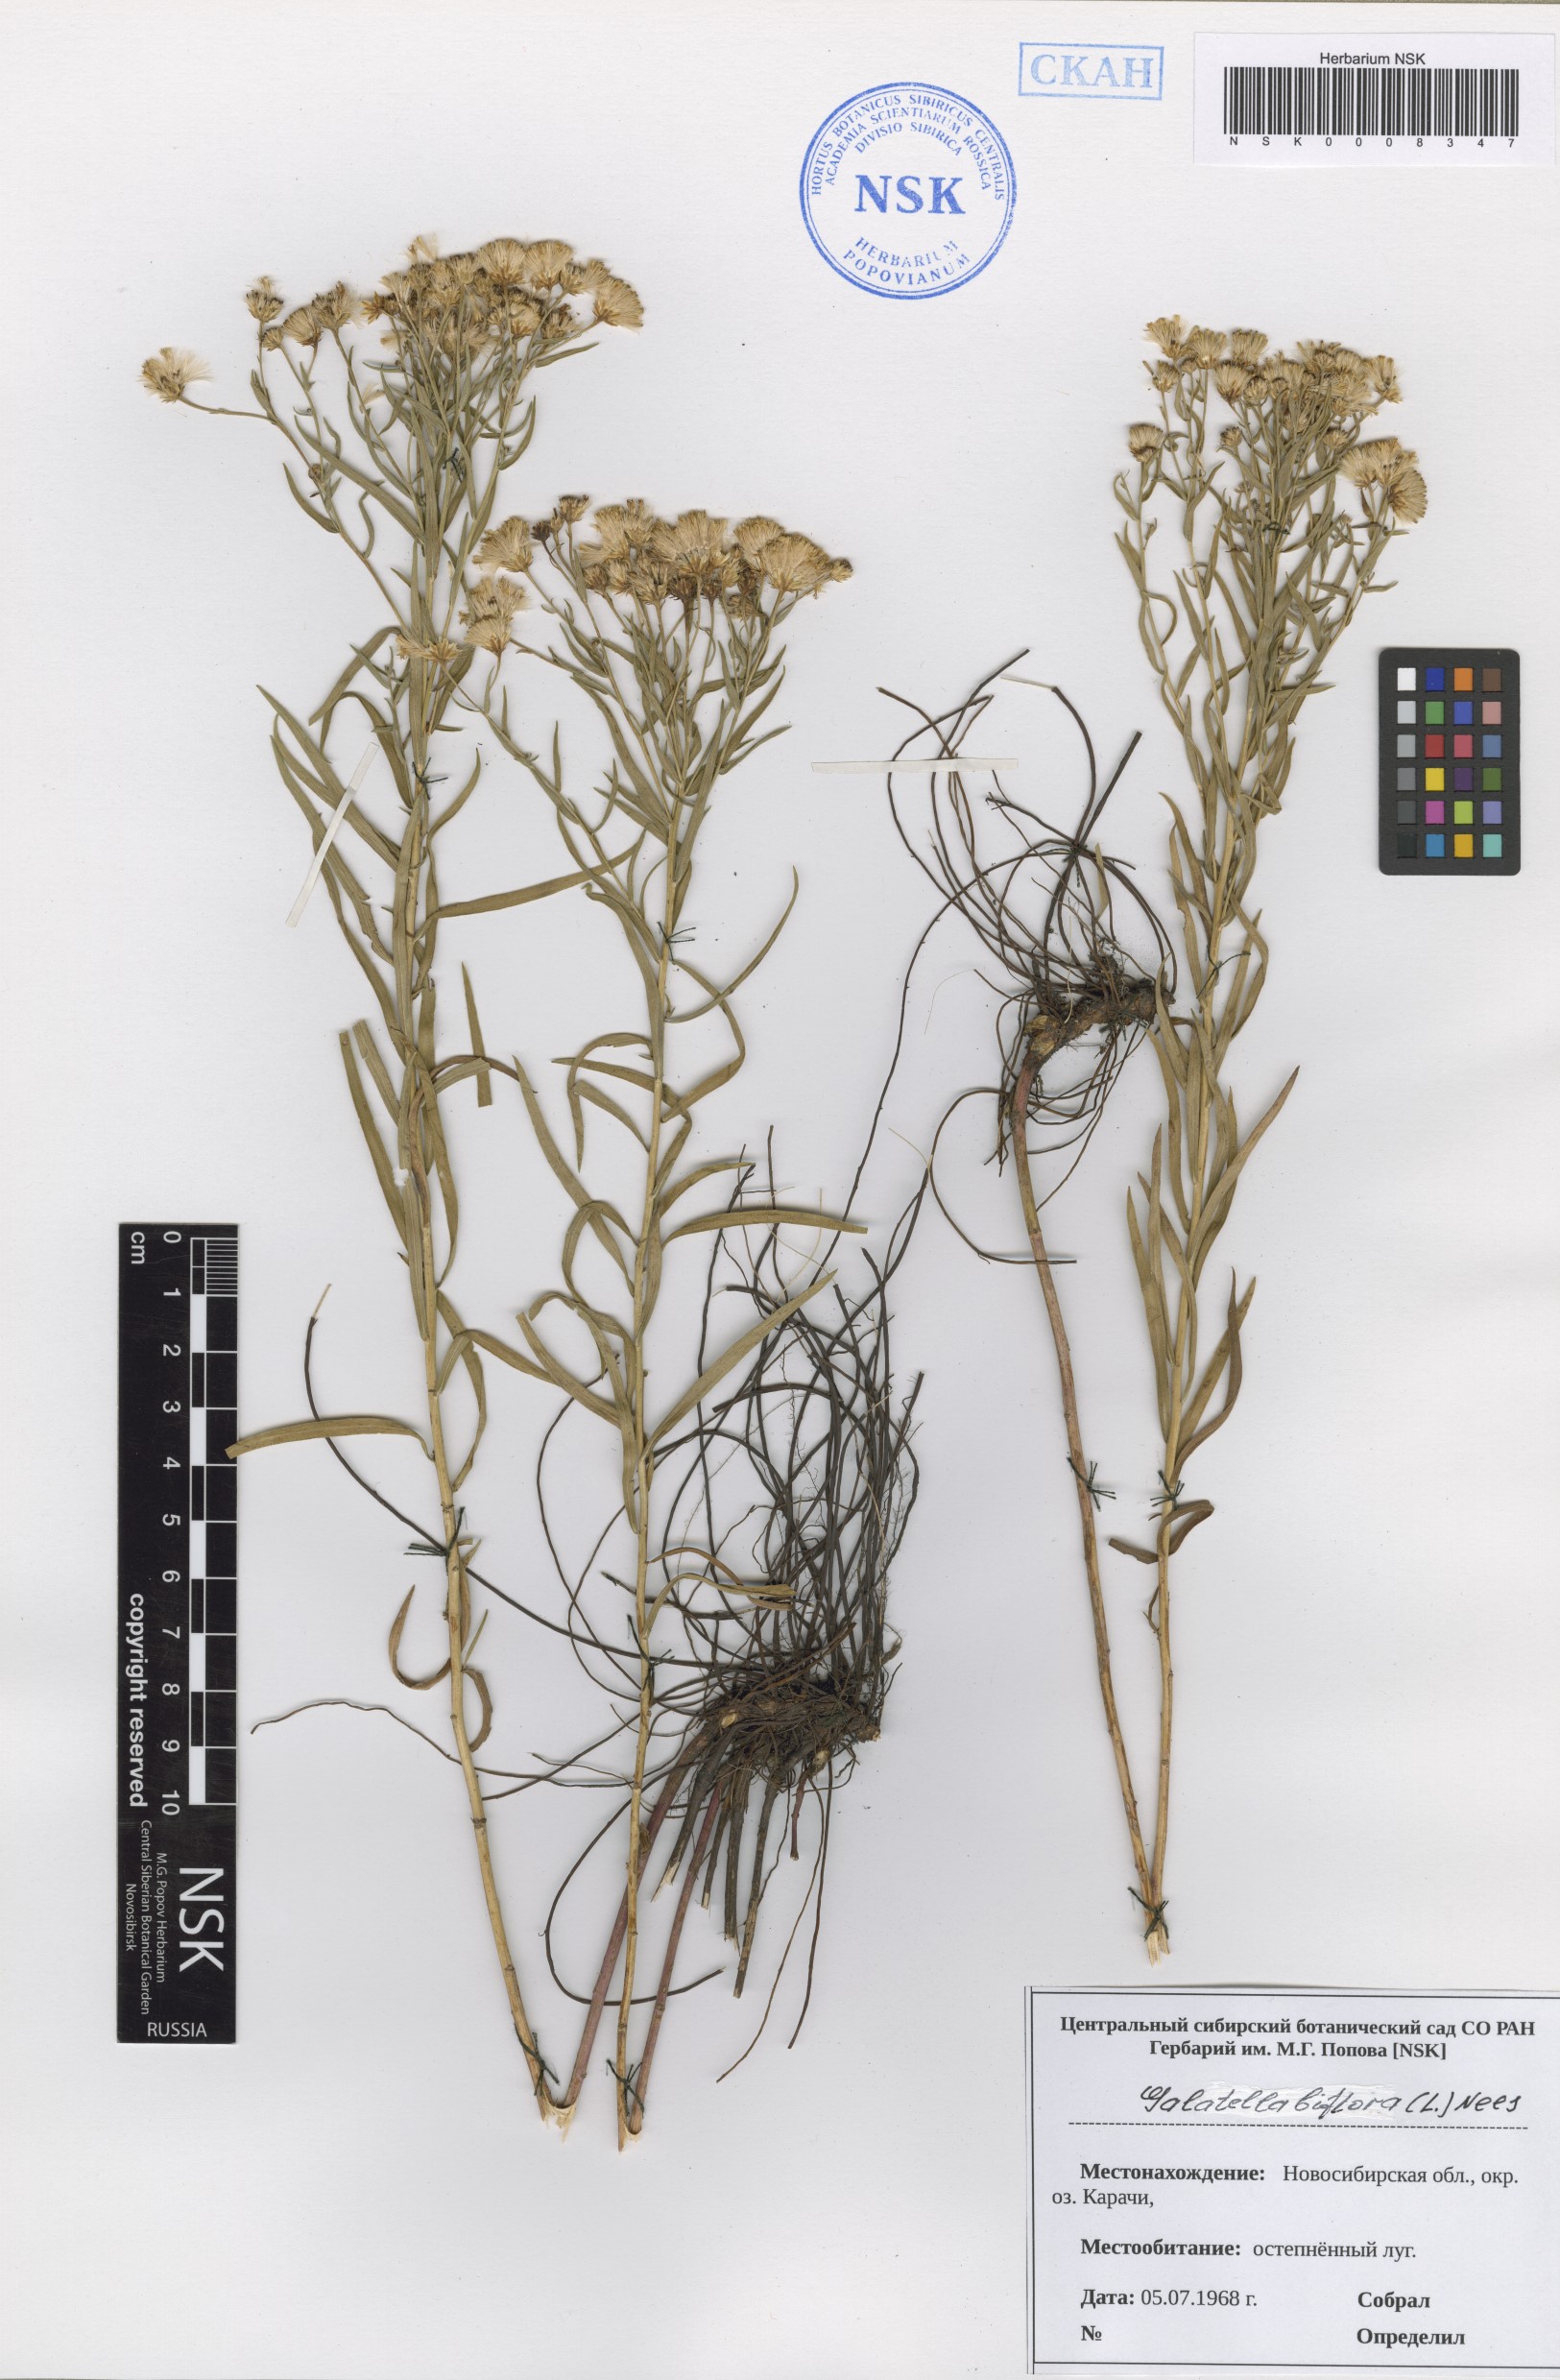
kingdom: Plantae
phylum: Tracheophyta
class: Magnoliopsida
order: Asterales
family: Asteraceae
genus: Galatella
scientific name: Galatella biflora
